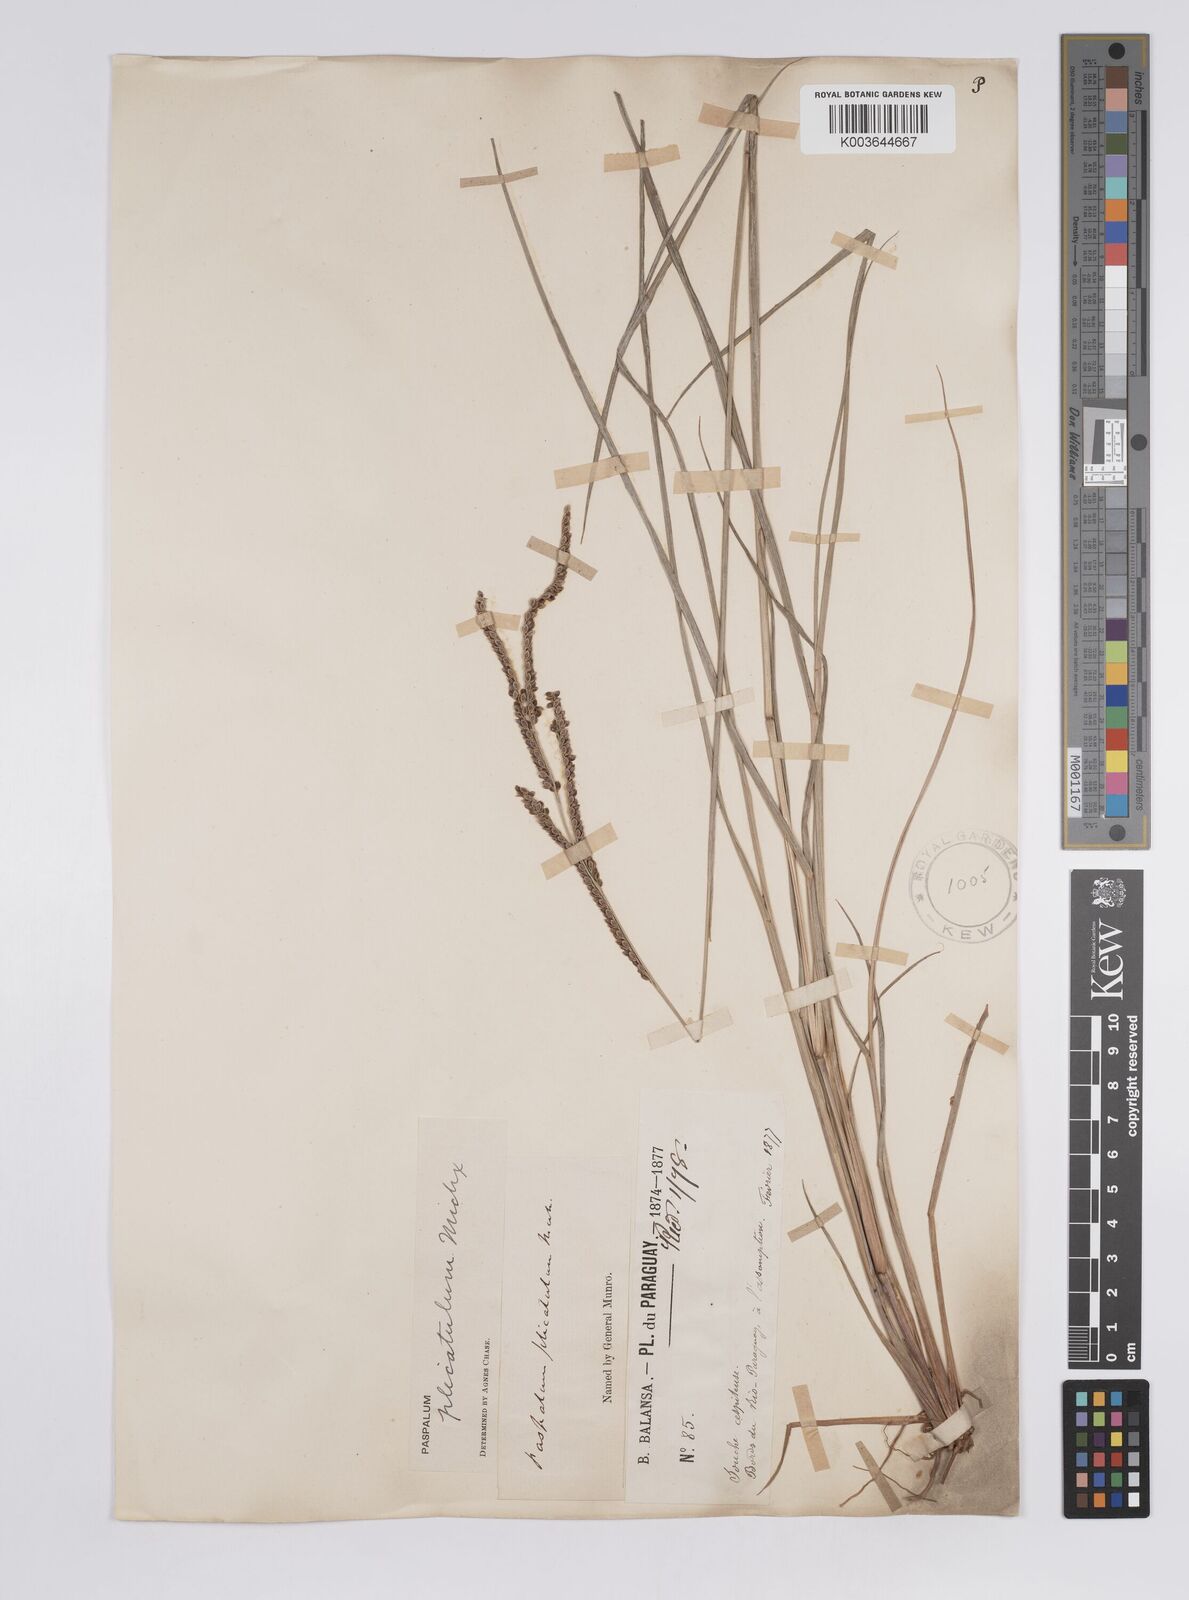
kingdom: Plantae
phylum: Tracheophyta
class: Liliopsida
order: Poales
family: Poaceae
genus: Paspalum
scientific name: Paspalum plicatulum
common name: Top paspalum
